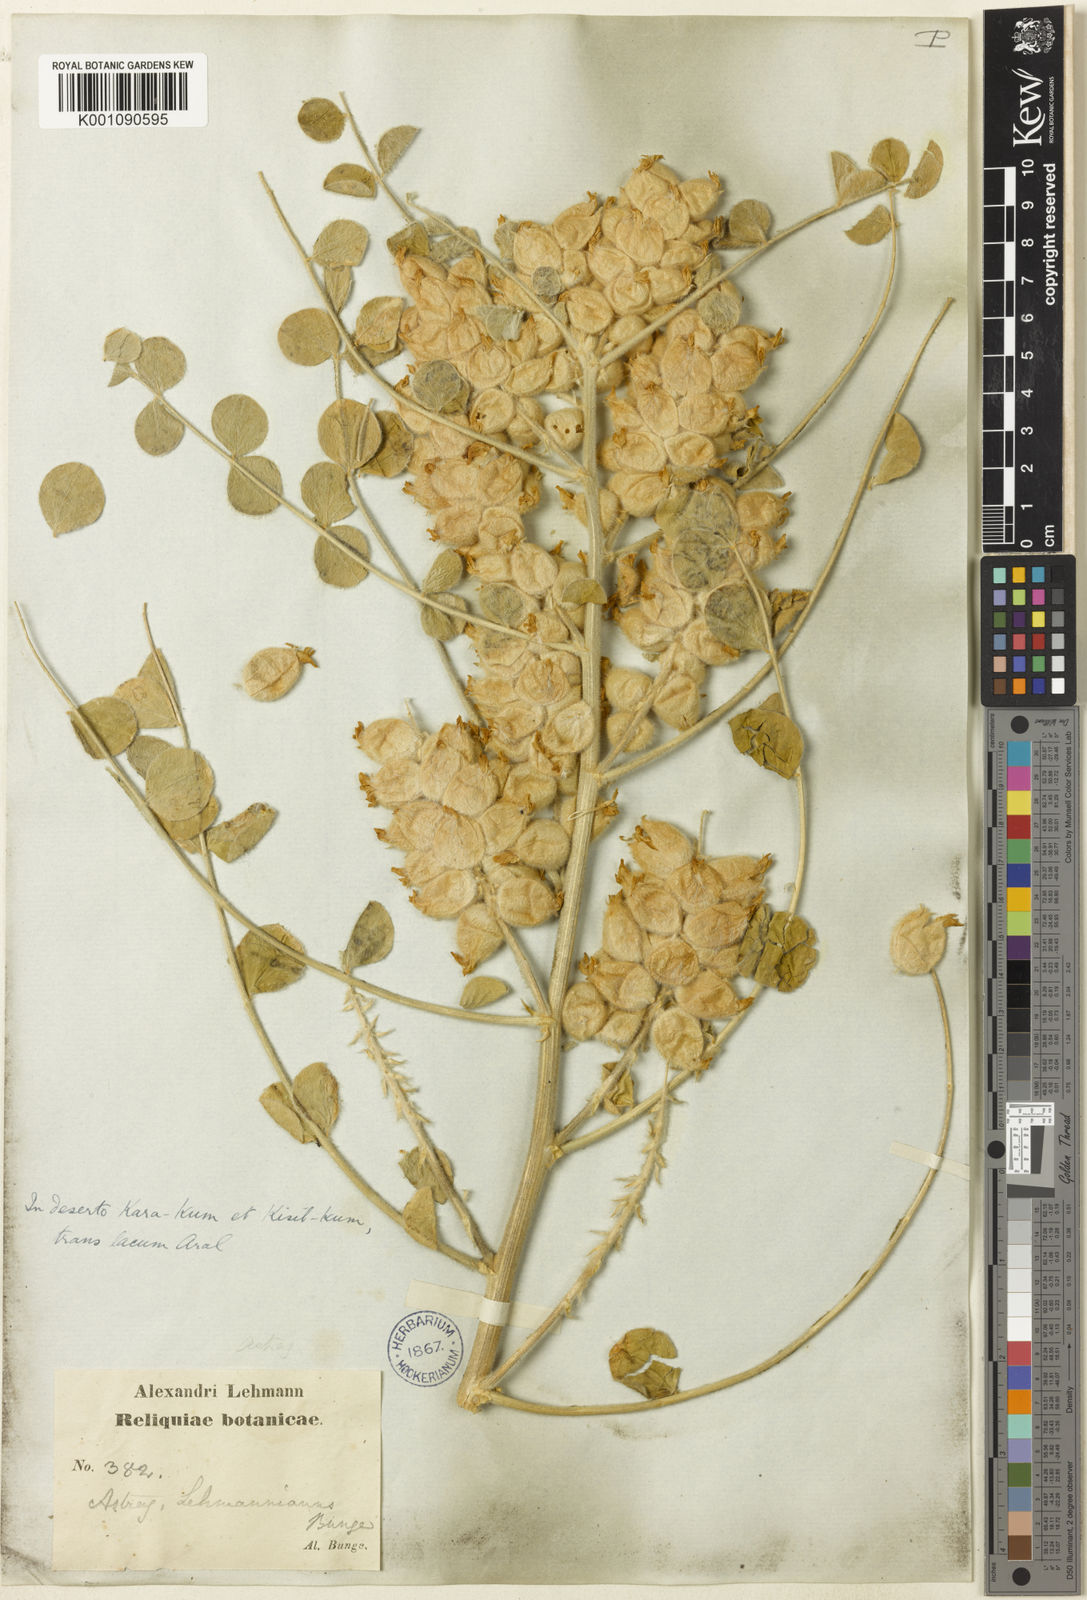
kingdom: Plantae
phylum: Tracheophyta
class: Magnoliopsida
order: Fabales
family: Fabaceae
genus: Astragalus
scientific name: Astragalus
